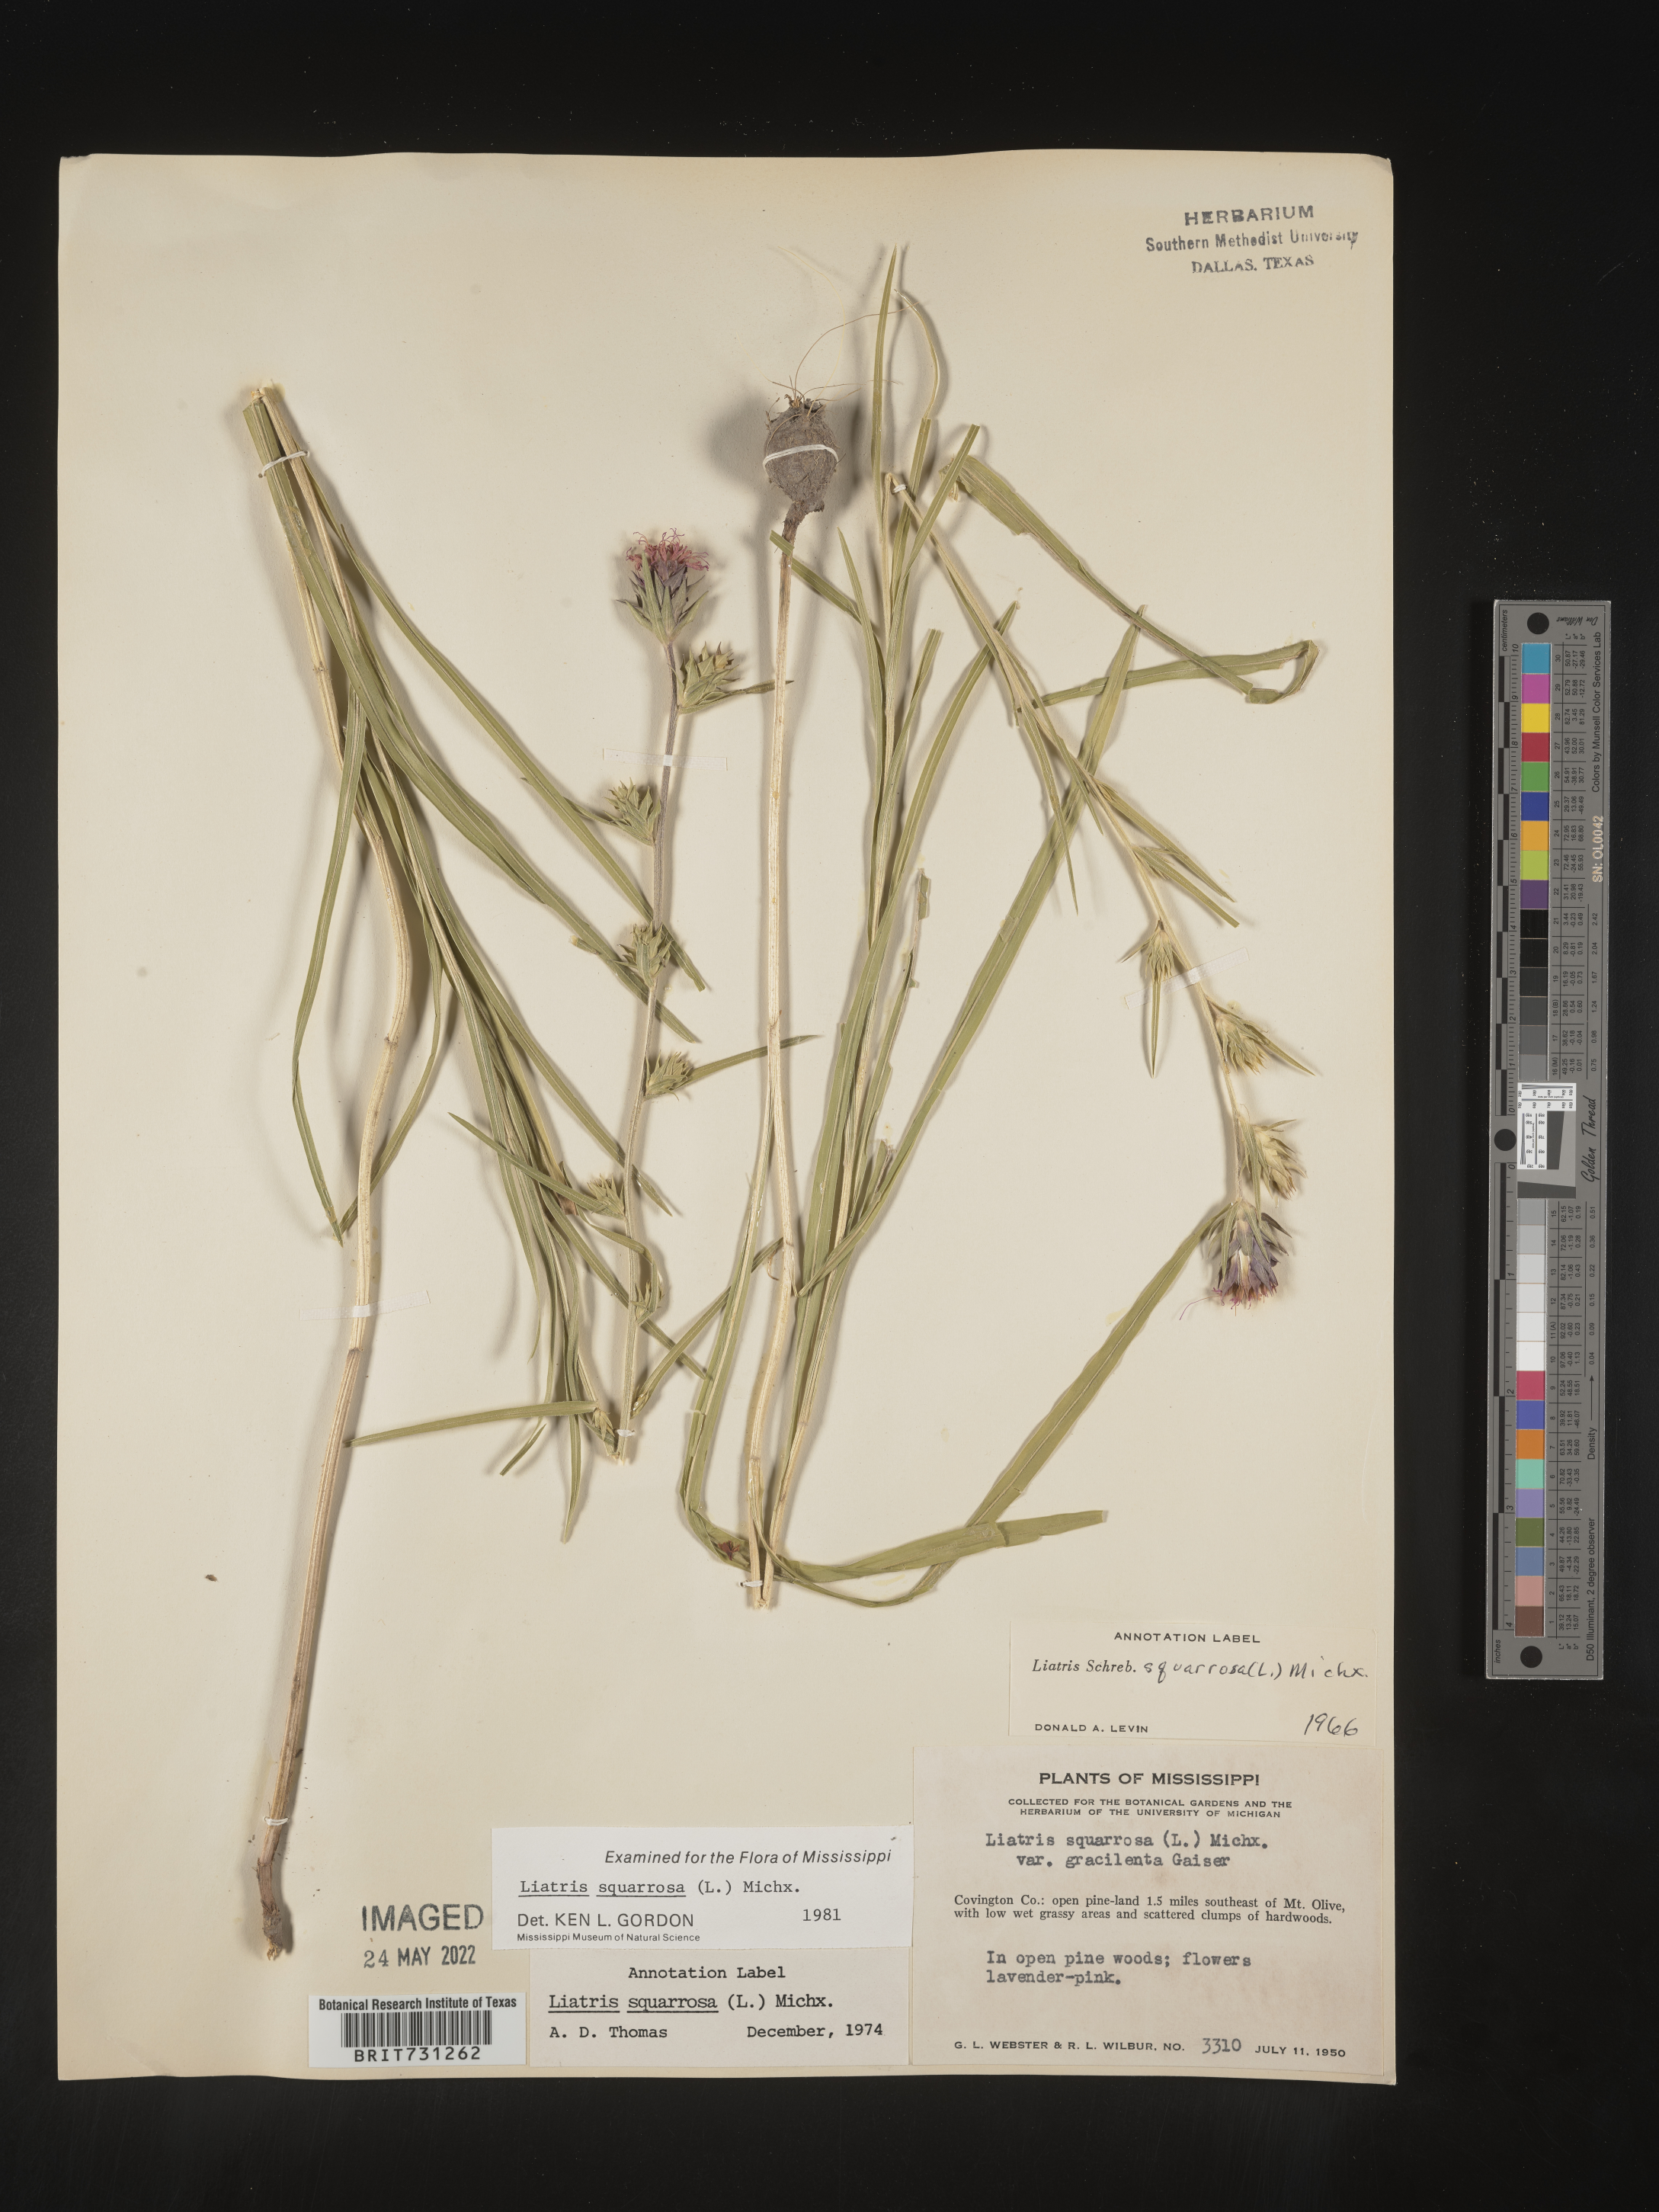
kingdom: Plantae
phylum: Tracheophyta
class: Magnoliopsida
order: Asterales
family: Asteraceae
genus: Liatris
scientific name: Liatris squarrosa
